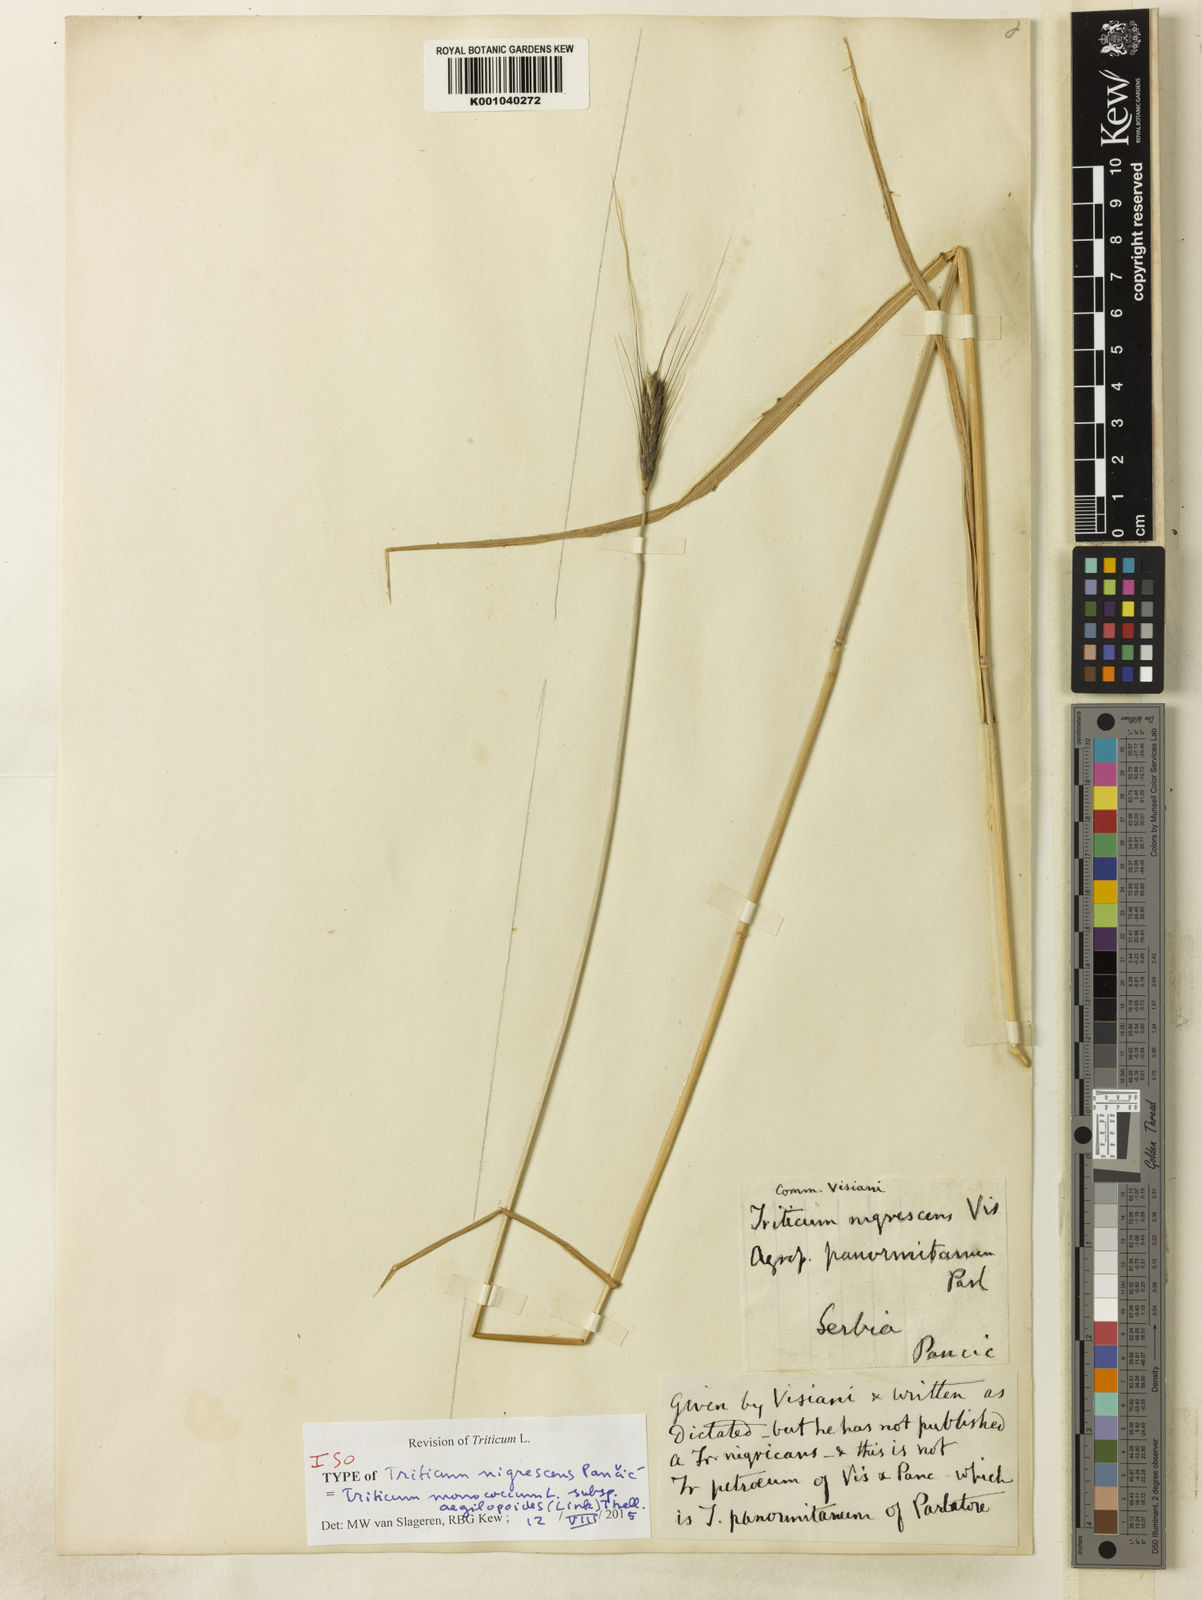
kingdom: Plantae
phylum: Tracheophyta
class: Liliopsida
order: Poales
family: Poaceae
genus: Triticum
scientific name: Triticum monococcum
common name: Einkorn
